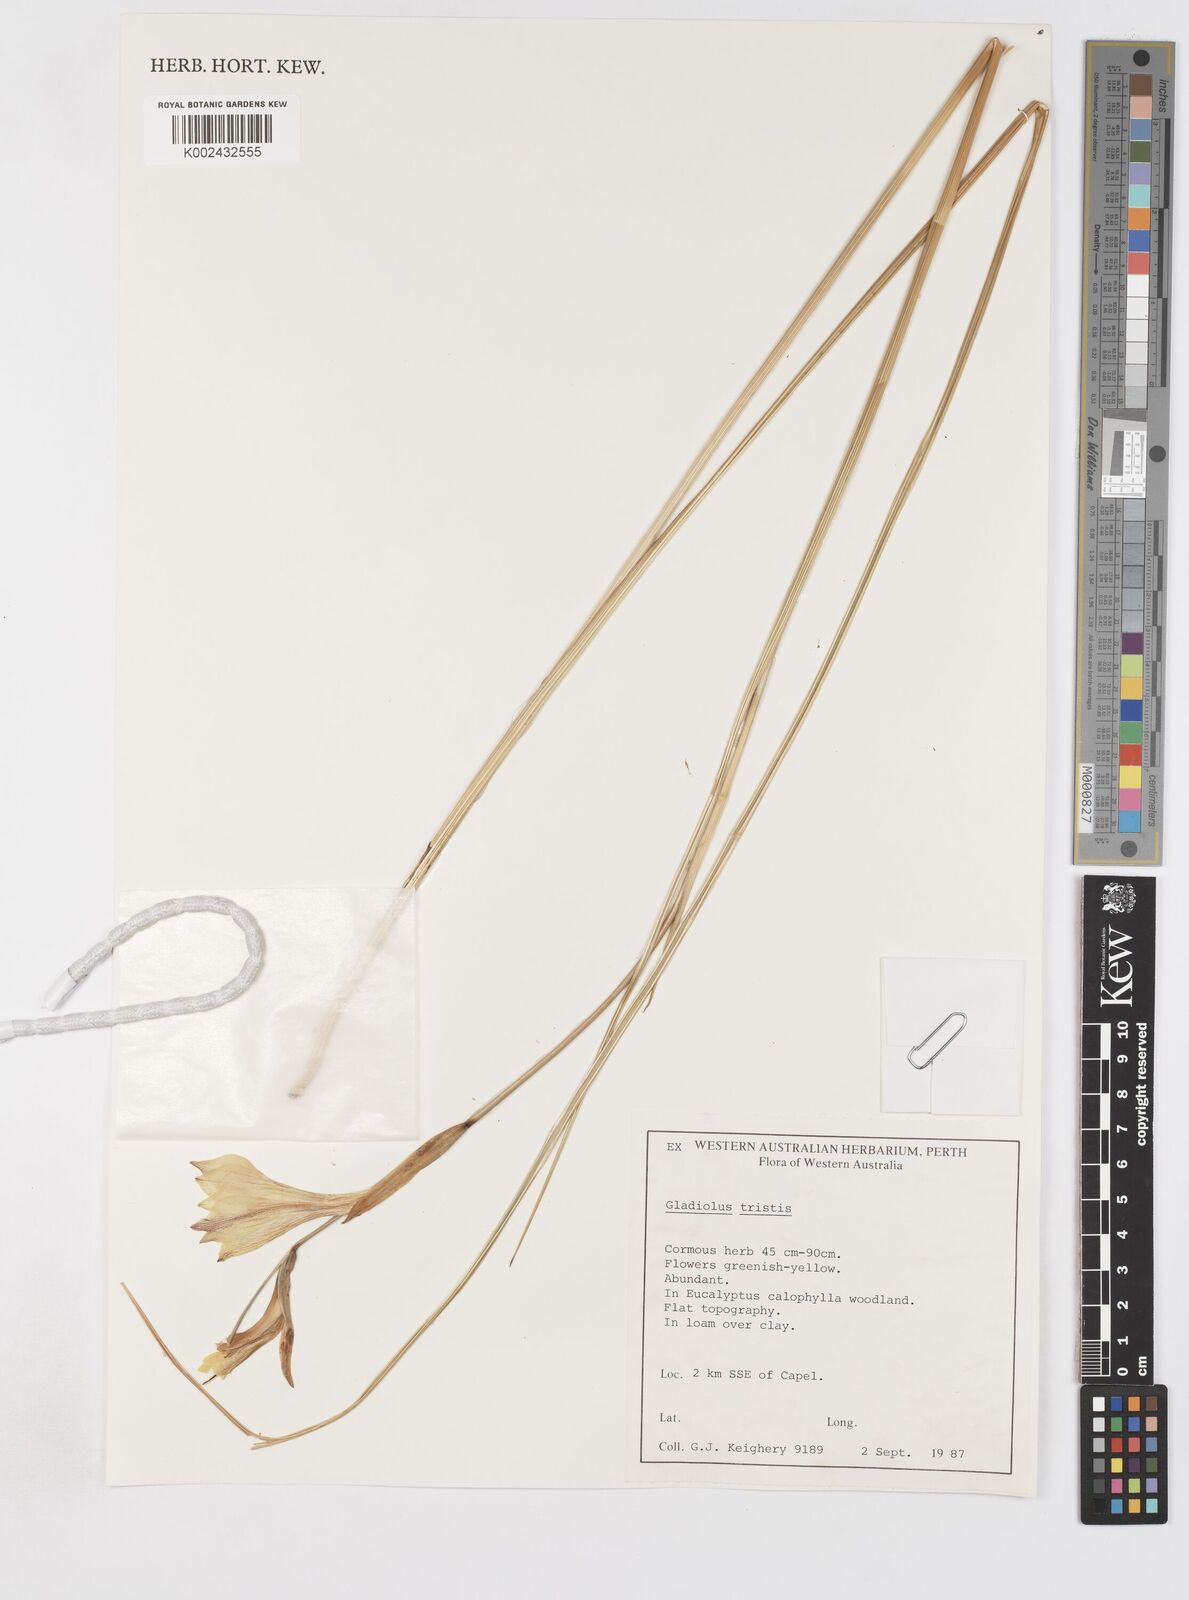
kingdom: Plantae
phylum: Tracheophyta
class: Liliopsida
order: Asparagales
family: Iridaceae
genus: Gladiolus
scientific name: Gladiolus tristis
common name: Ever-flowering gladiolus
